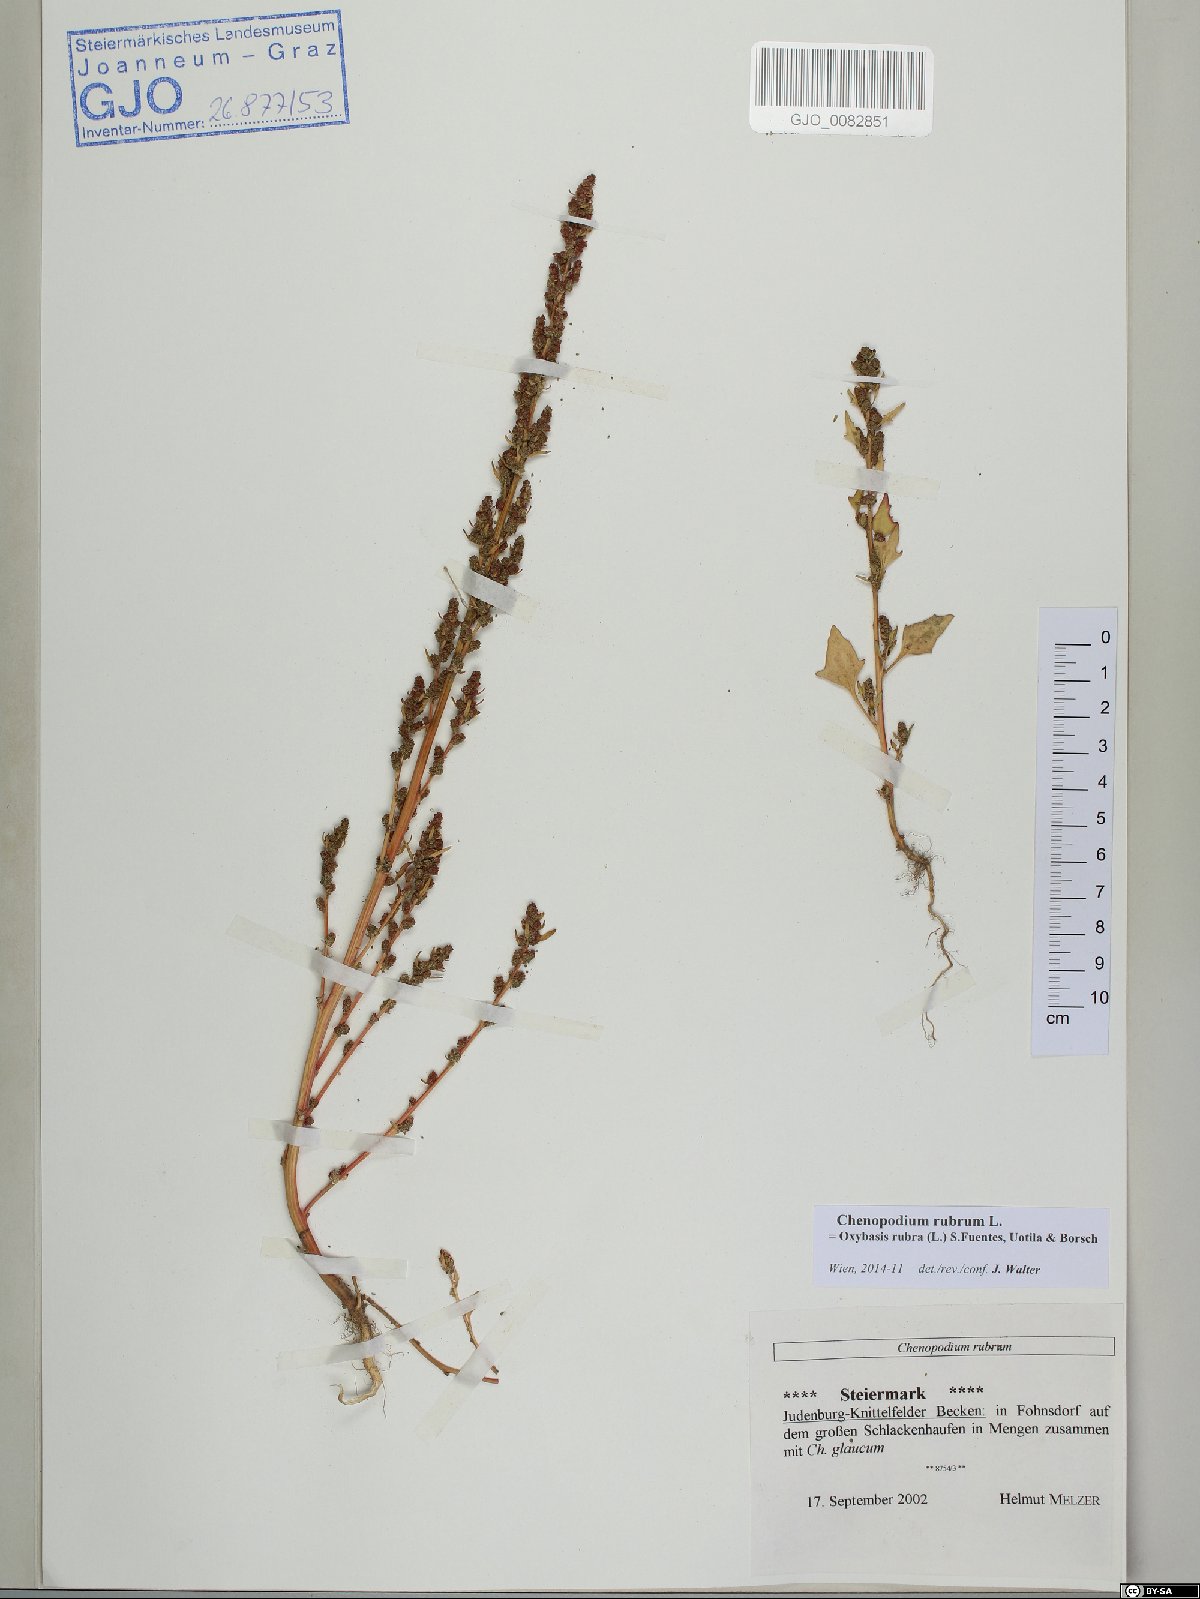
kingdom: Plantae
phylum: Tracheophyta
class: Magnoliopsida
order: Caryophyllales
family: Amaranthaceae
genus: Oxybasis
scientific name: Oxybasis rubra
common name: Red goosefoot
